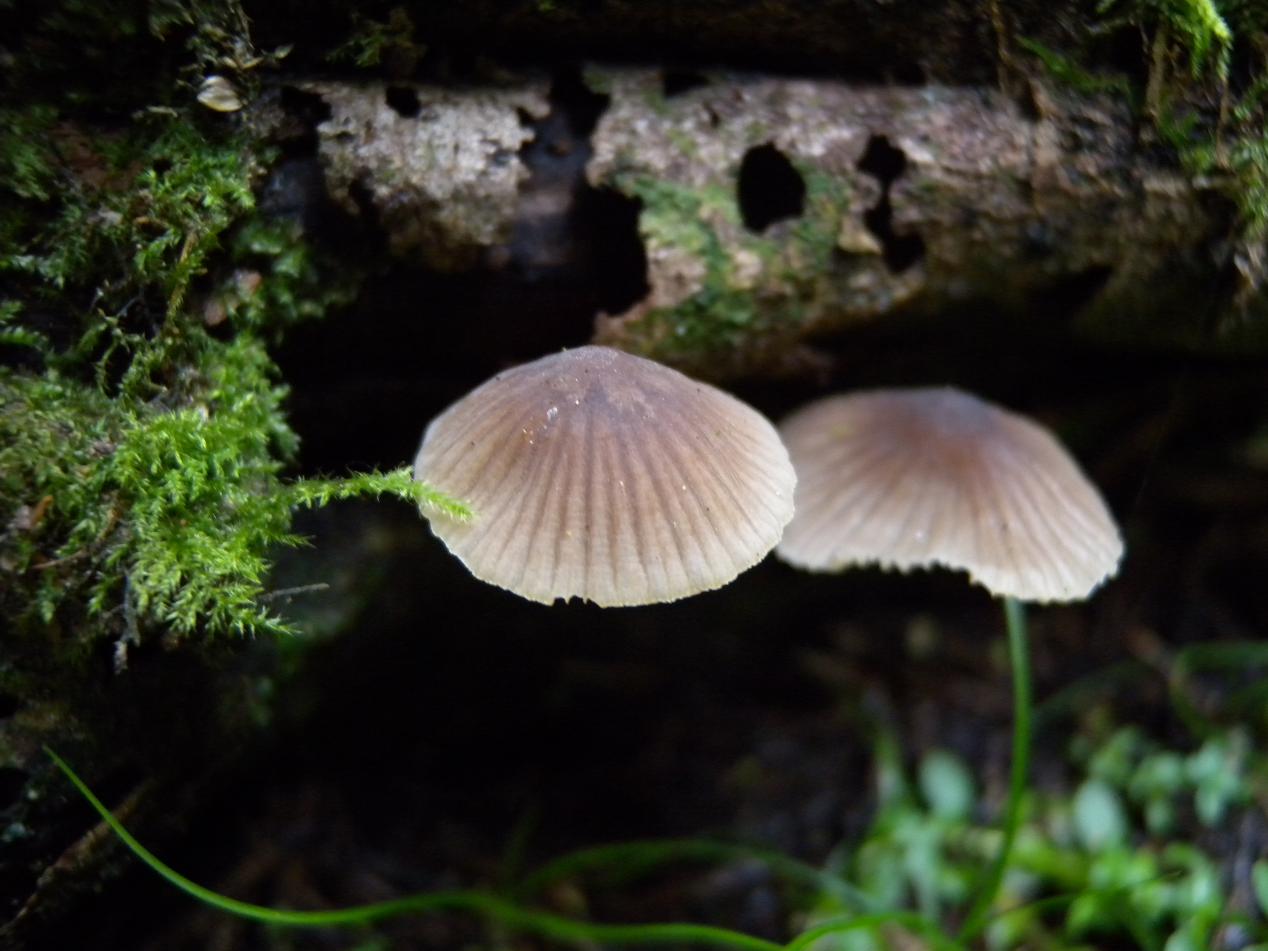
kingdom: Fungi
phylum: Basidiomycota
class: Agaricomycetes
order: Agaricales
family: Mycenaceae
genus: Mycena
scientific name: Mycena leptocephala
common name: klor-huesvamp
